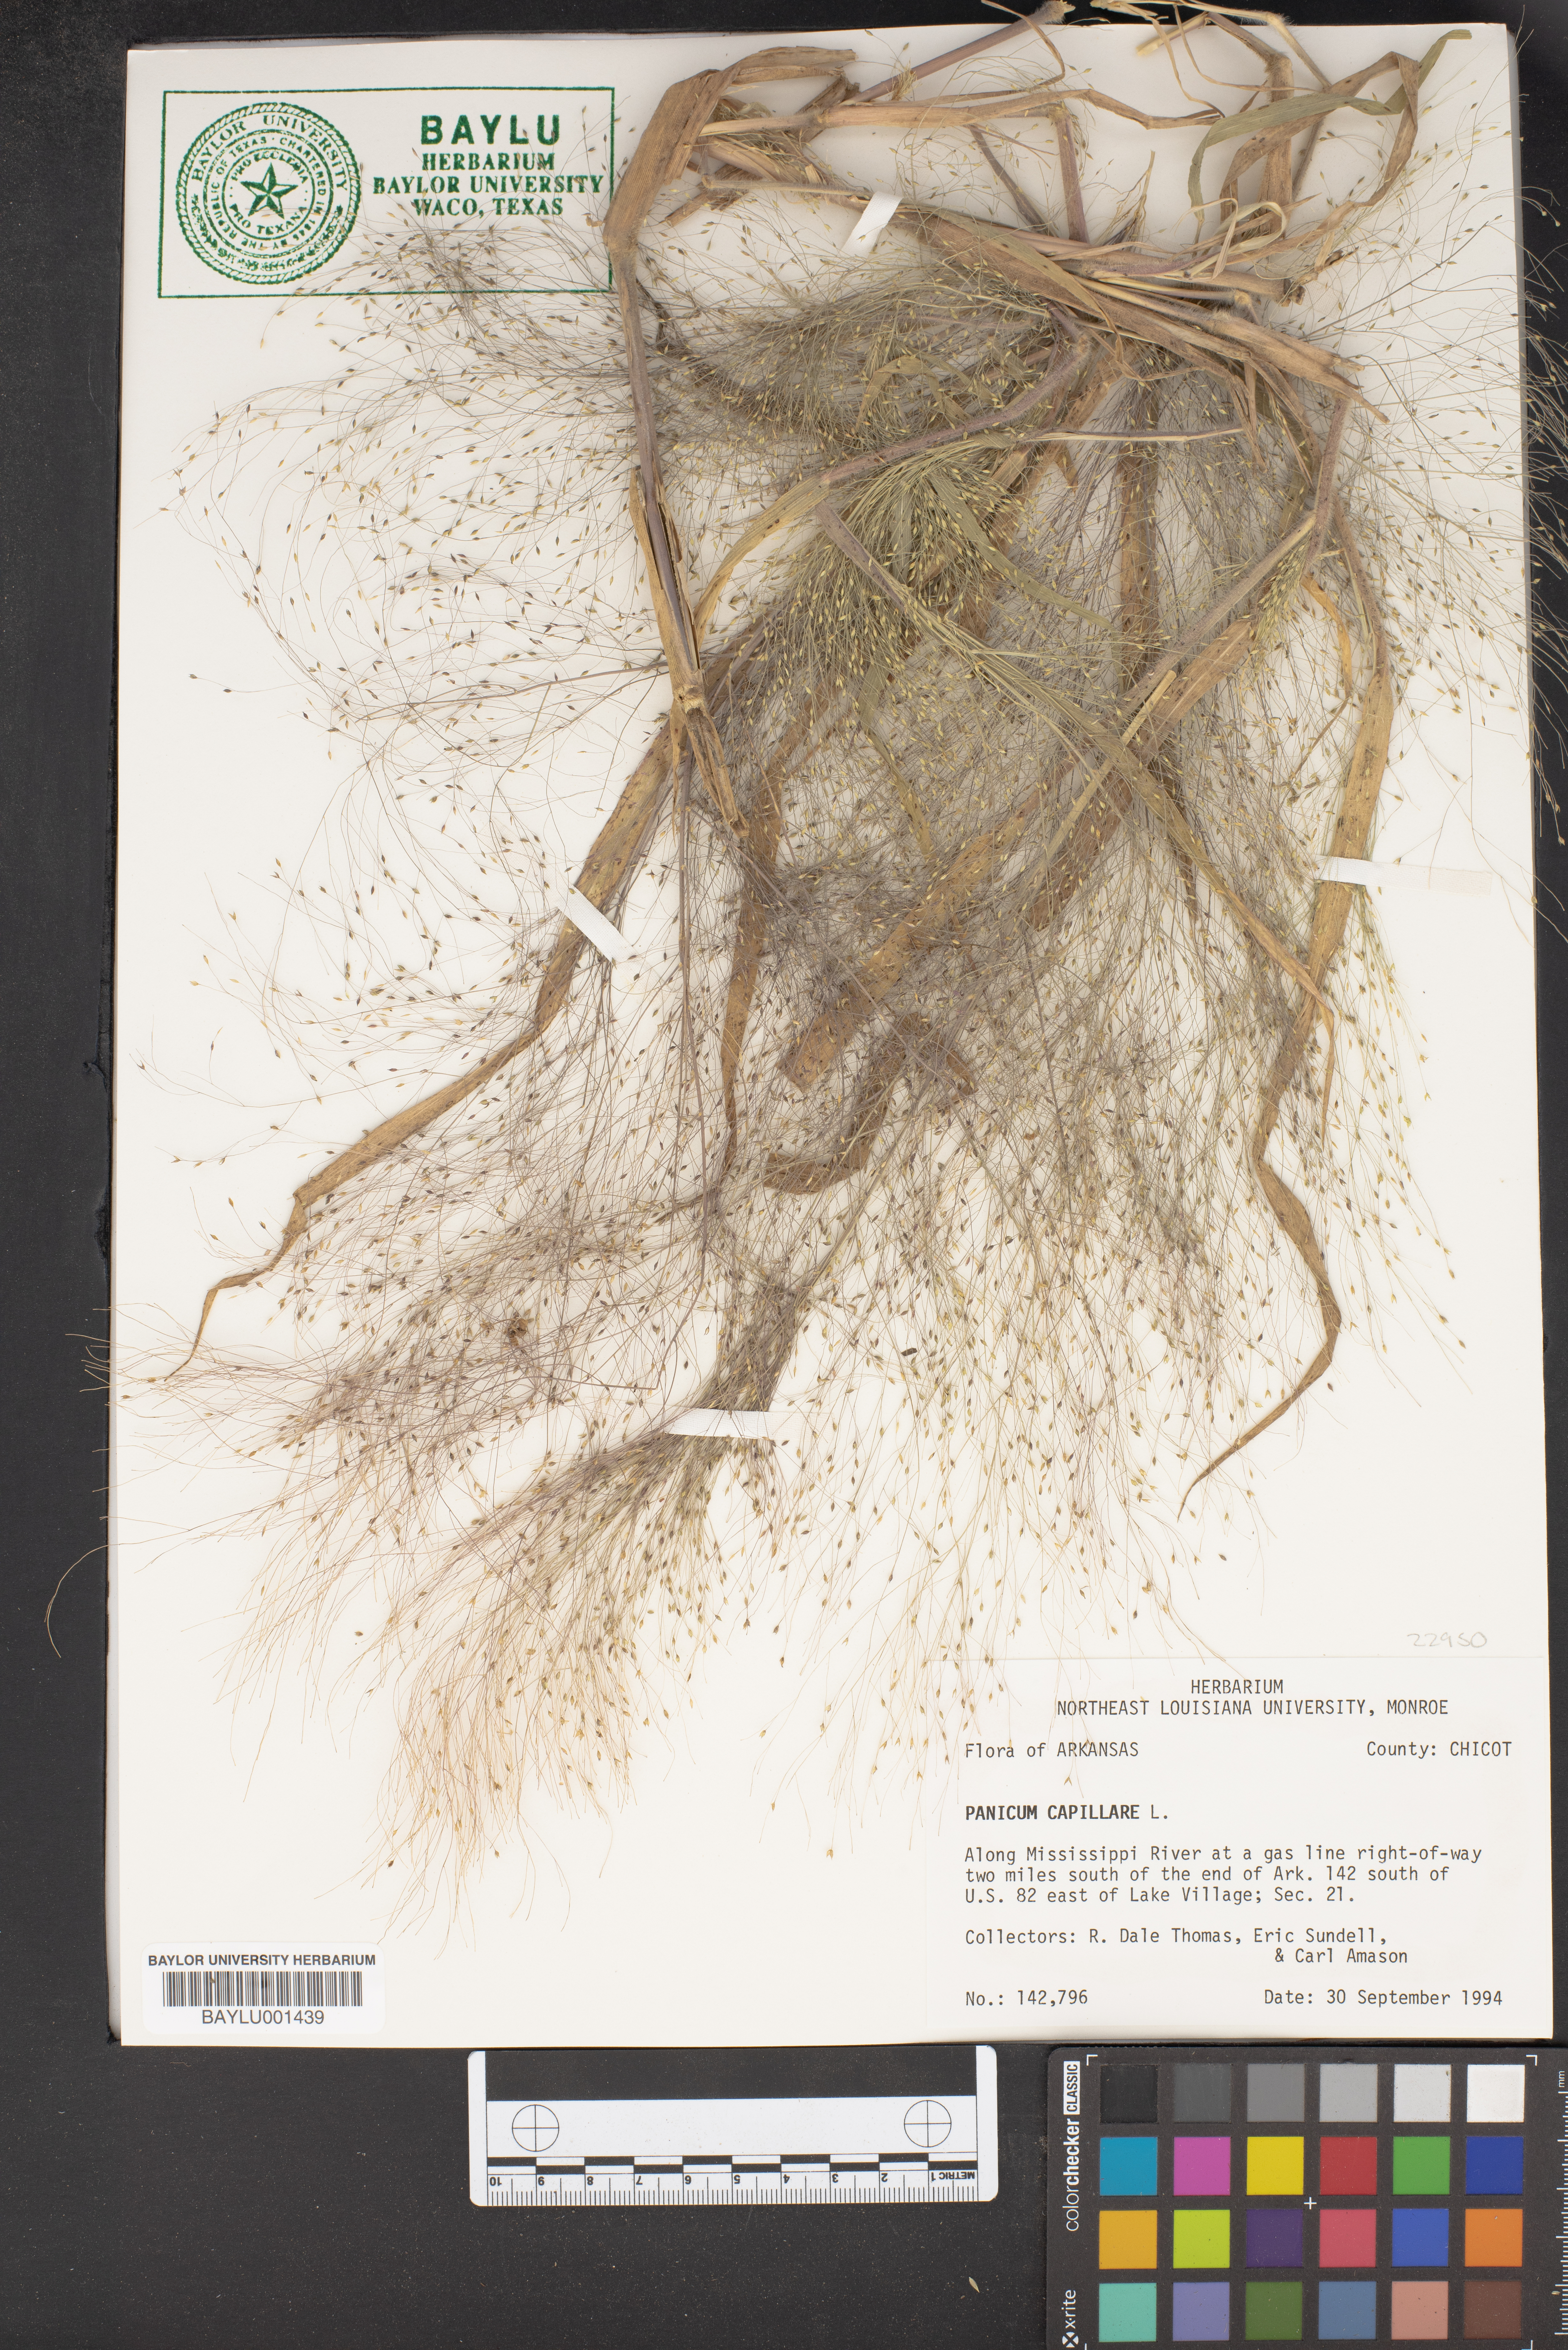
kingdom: Plantae
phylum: Tracheophyta
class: Liliopsida
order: Poales
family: Poaceae
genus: Panicum
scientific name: Panicum capillare
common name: Witch-grass
